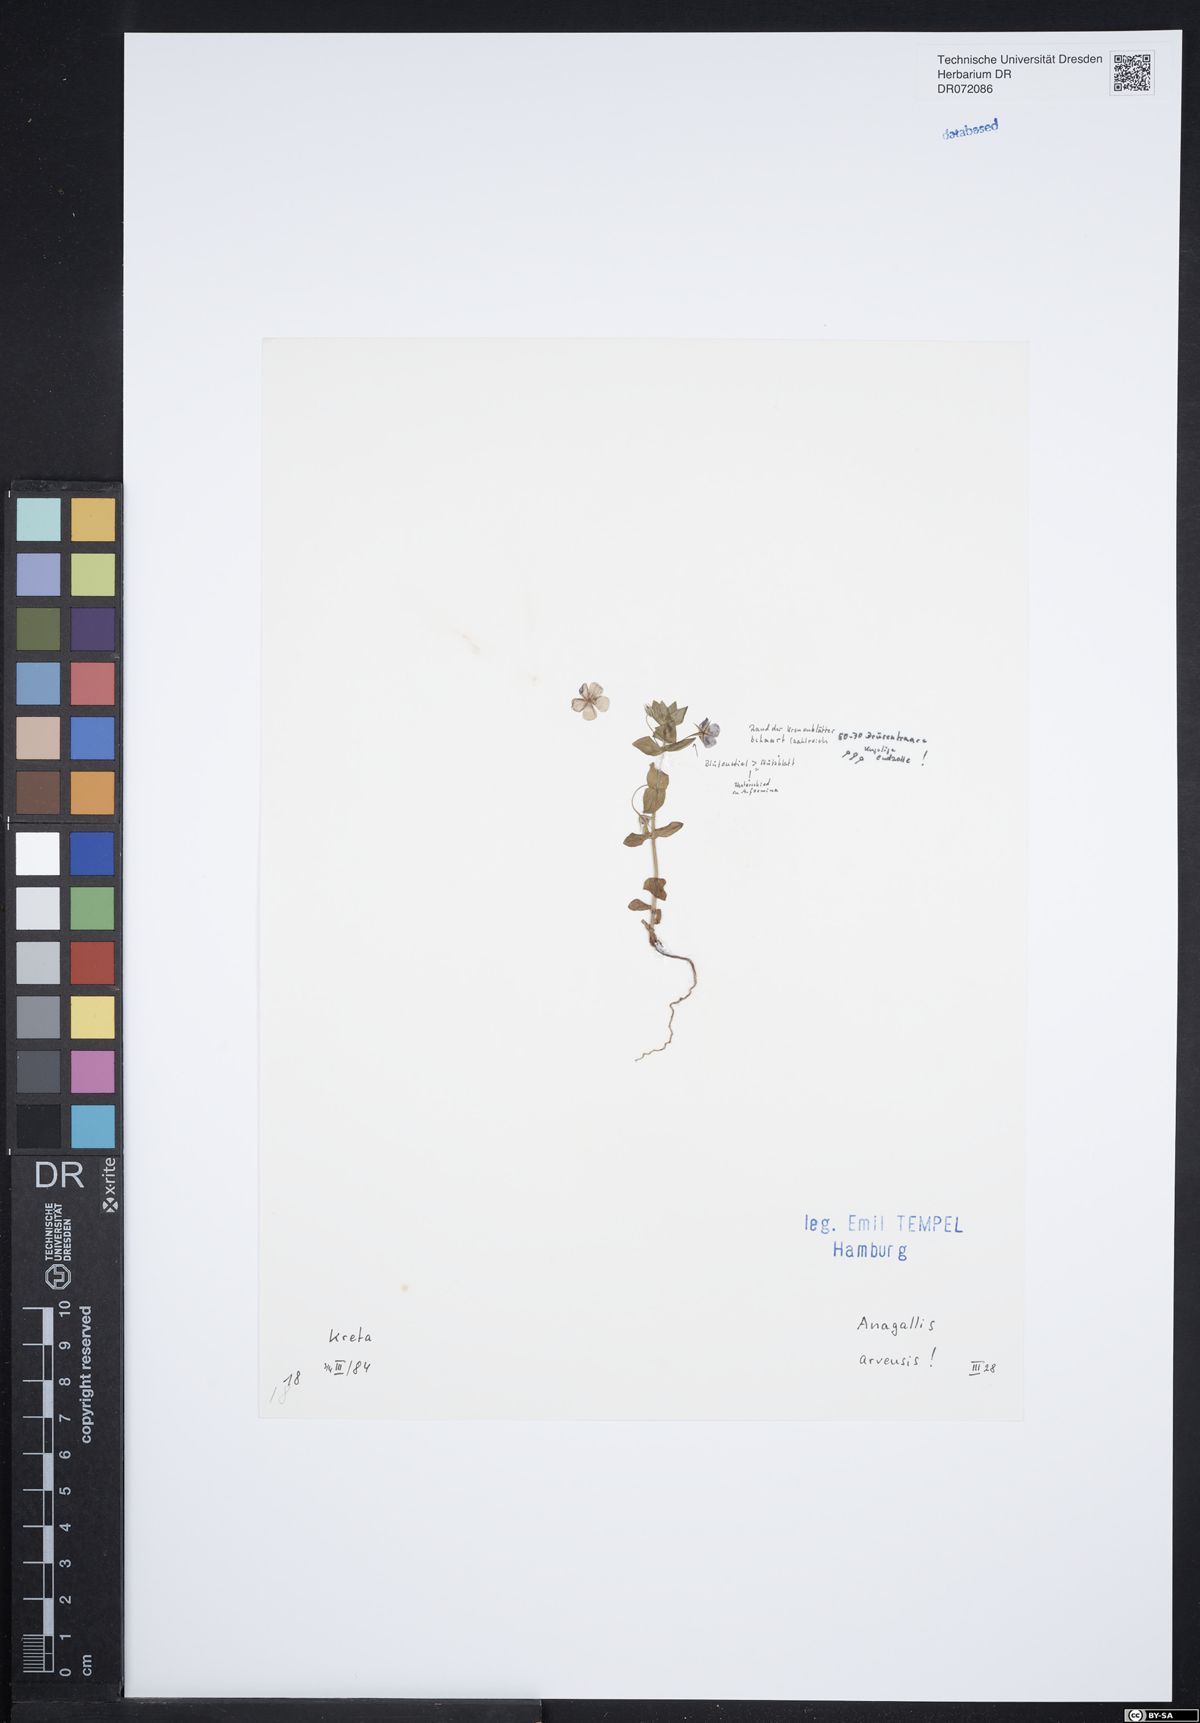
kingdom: Plantae
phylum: Tracheophyta
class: Magnoliopsida
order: Ericales
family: Primulaceae
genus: Lysimachia
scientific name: Lysimachia arvensis
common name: Scarlet pimpernel
